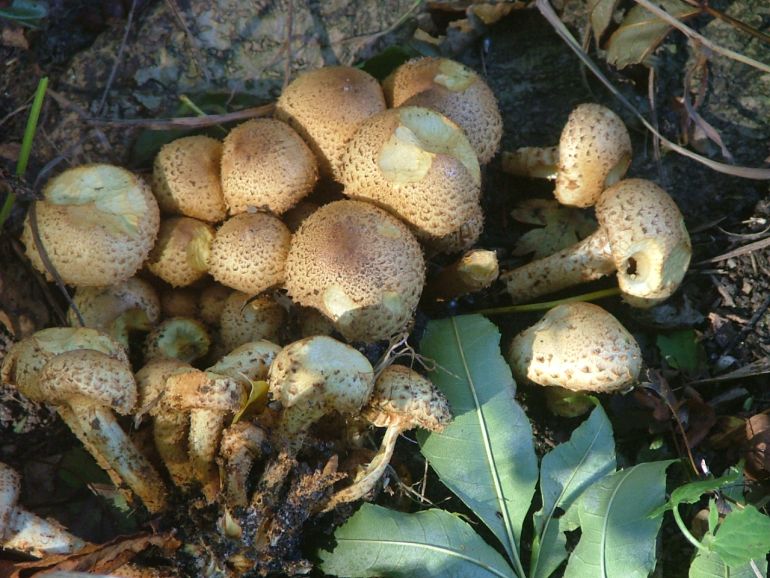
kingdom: Fungi
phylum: Basidiomycota
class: Agaricomycetes
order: Agaricales
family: Strophariaceae
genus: Pholiota
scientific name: Pholiota squarrosa
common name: krumskællet skælhat
